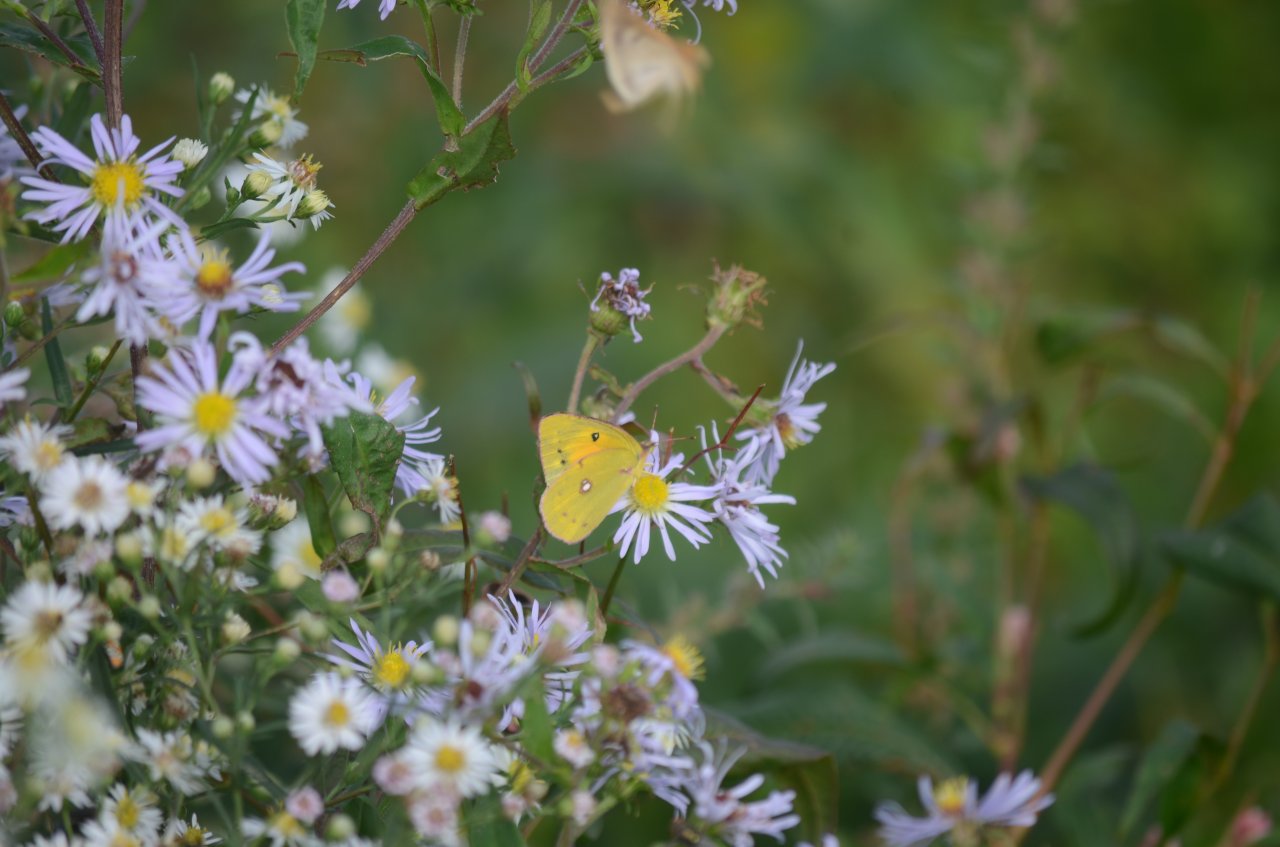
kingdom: Animalia
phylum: Arthropoda
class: Insecta
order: Lepidoptera
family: Pieridae
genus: Colias
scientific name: Colias eurytheme
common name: Orange Sulphur
